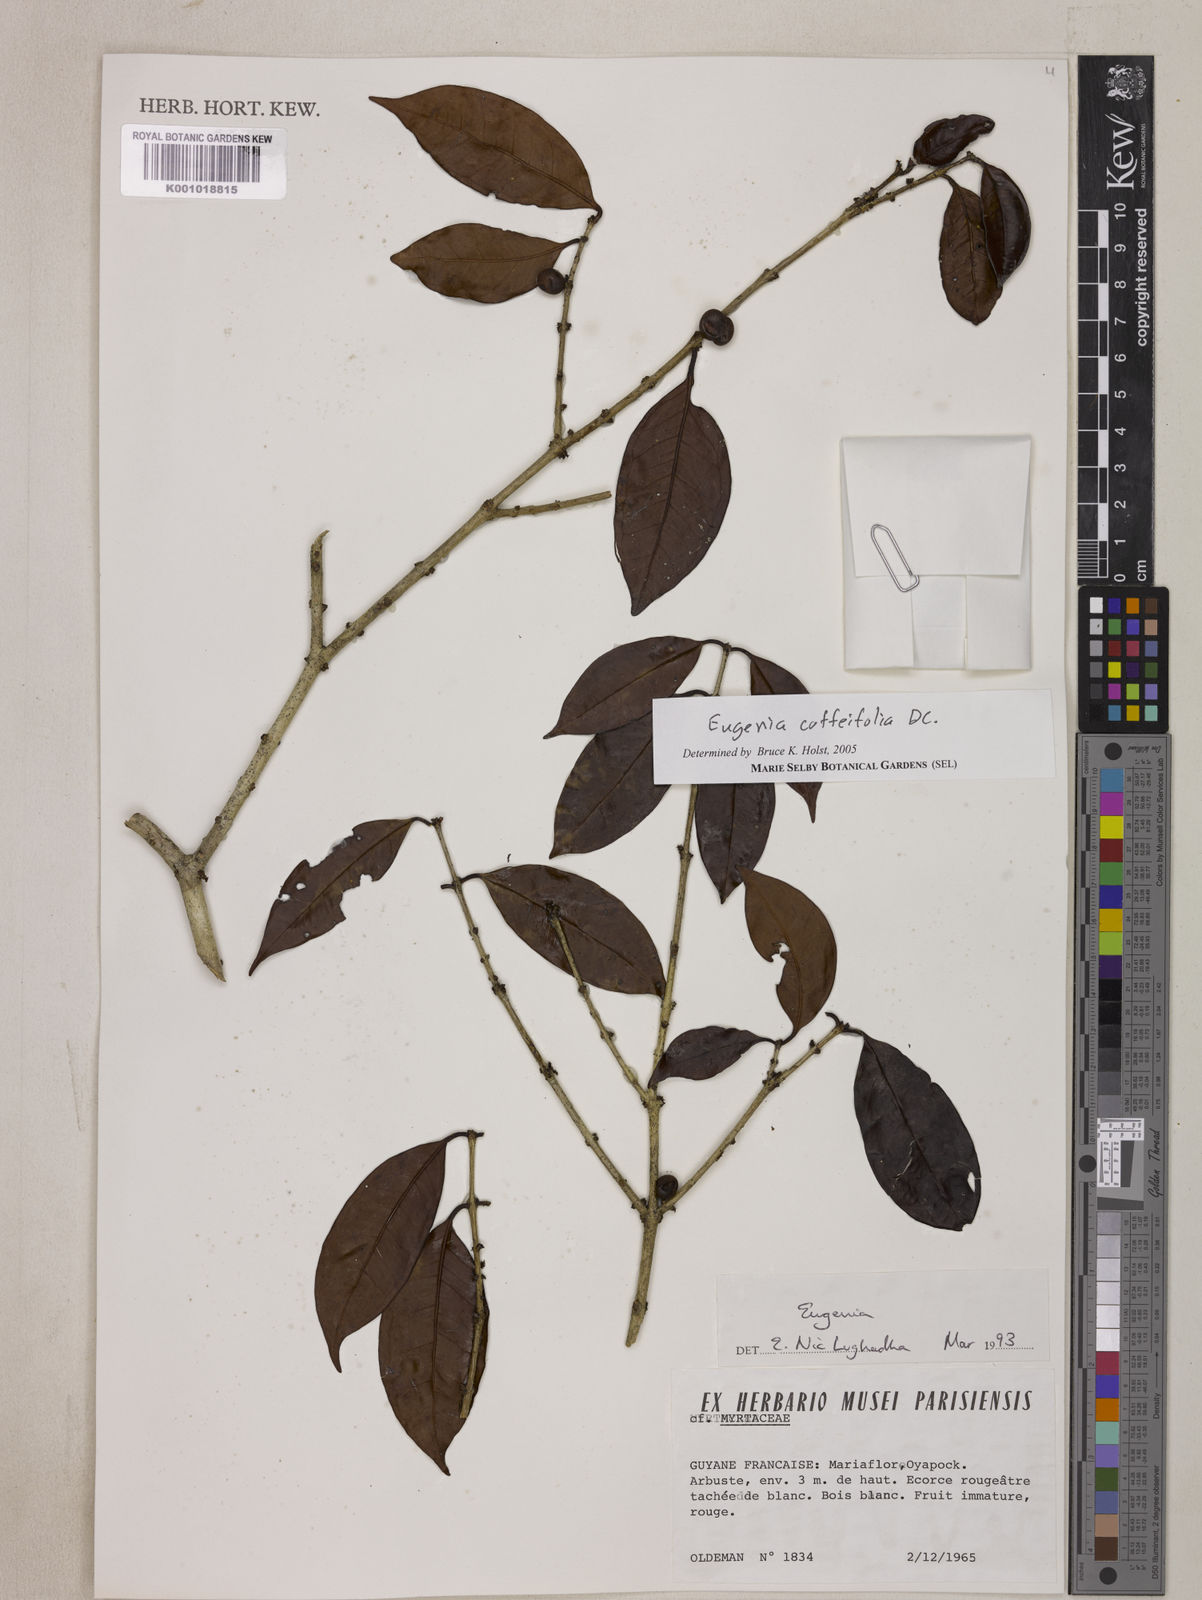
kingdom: Plantae
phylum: Tracheophyta
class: Magnoliopsida
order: Myrtales
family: Myrtaceae
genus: Eugenia
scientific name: Eugenia coffeifolia
